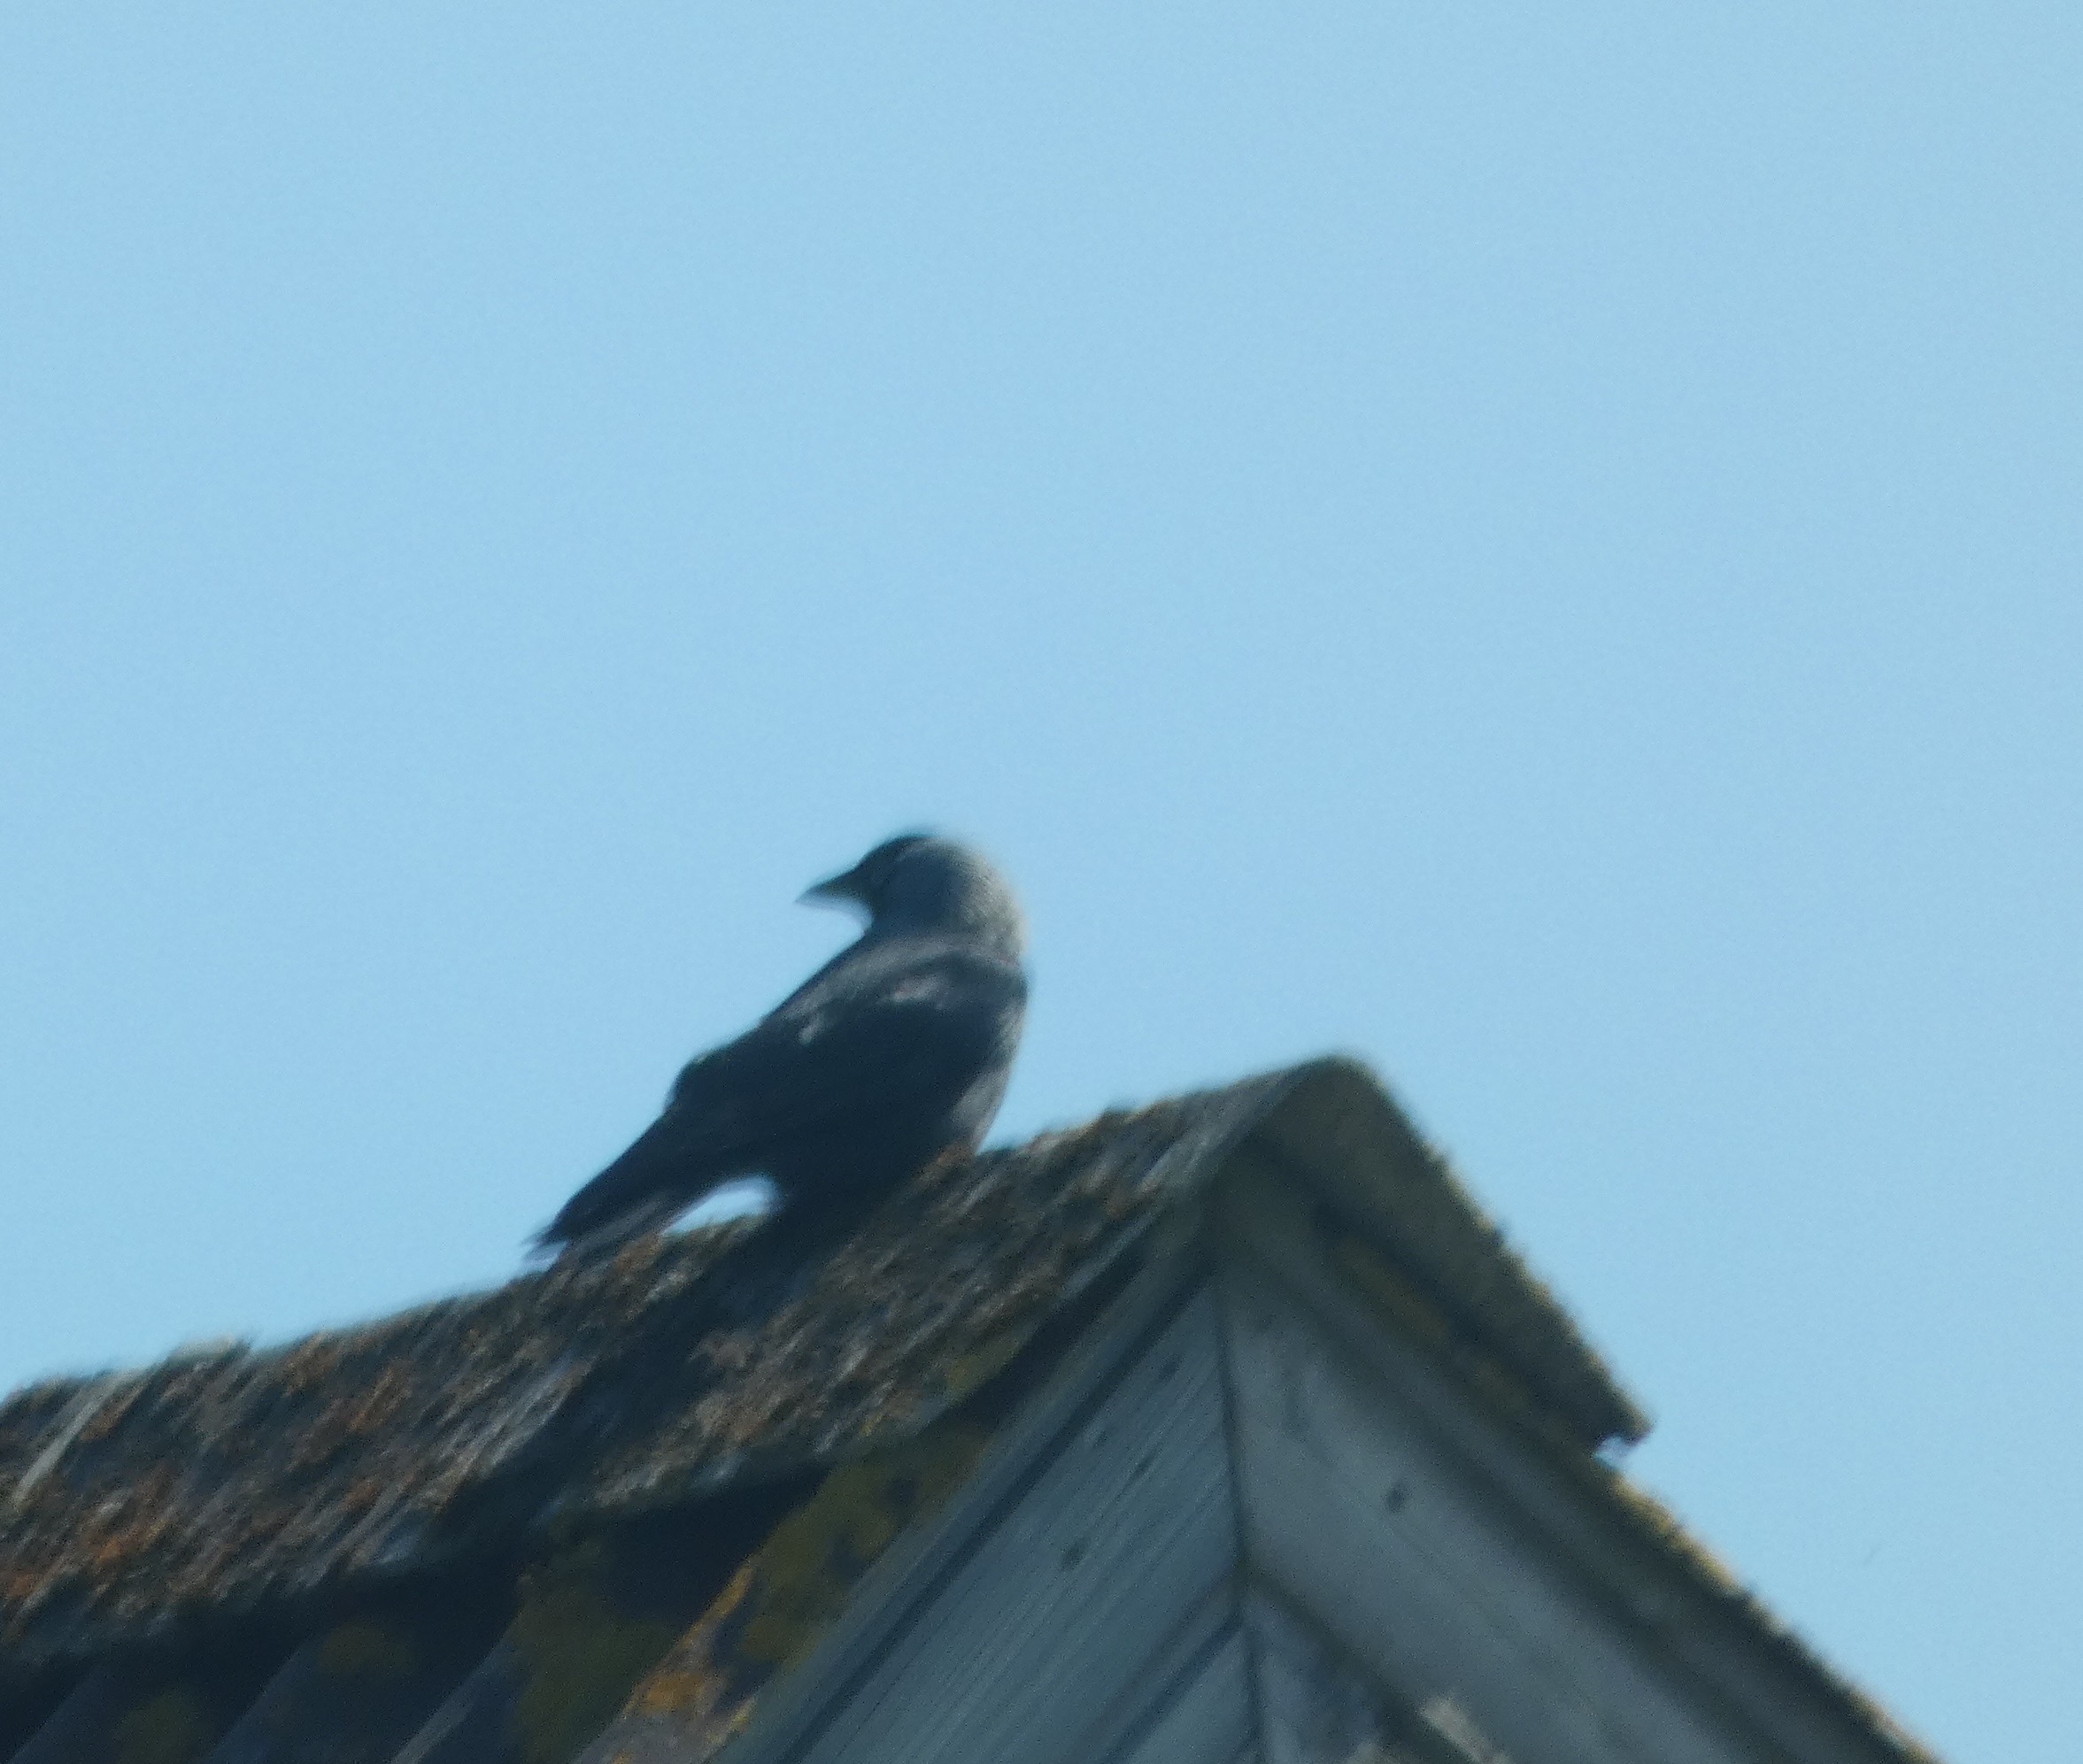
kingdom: Animalia
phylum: Chordata
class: Aves
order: Passeriformes
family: Corvidae
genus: Coloeus
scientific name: Coloeus monedula
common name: Allike
